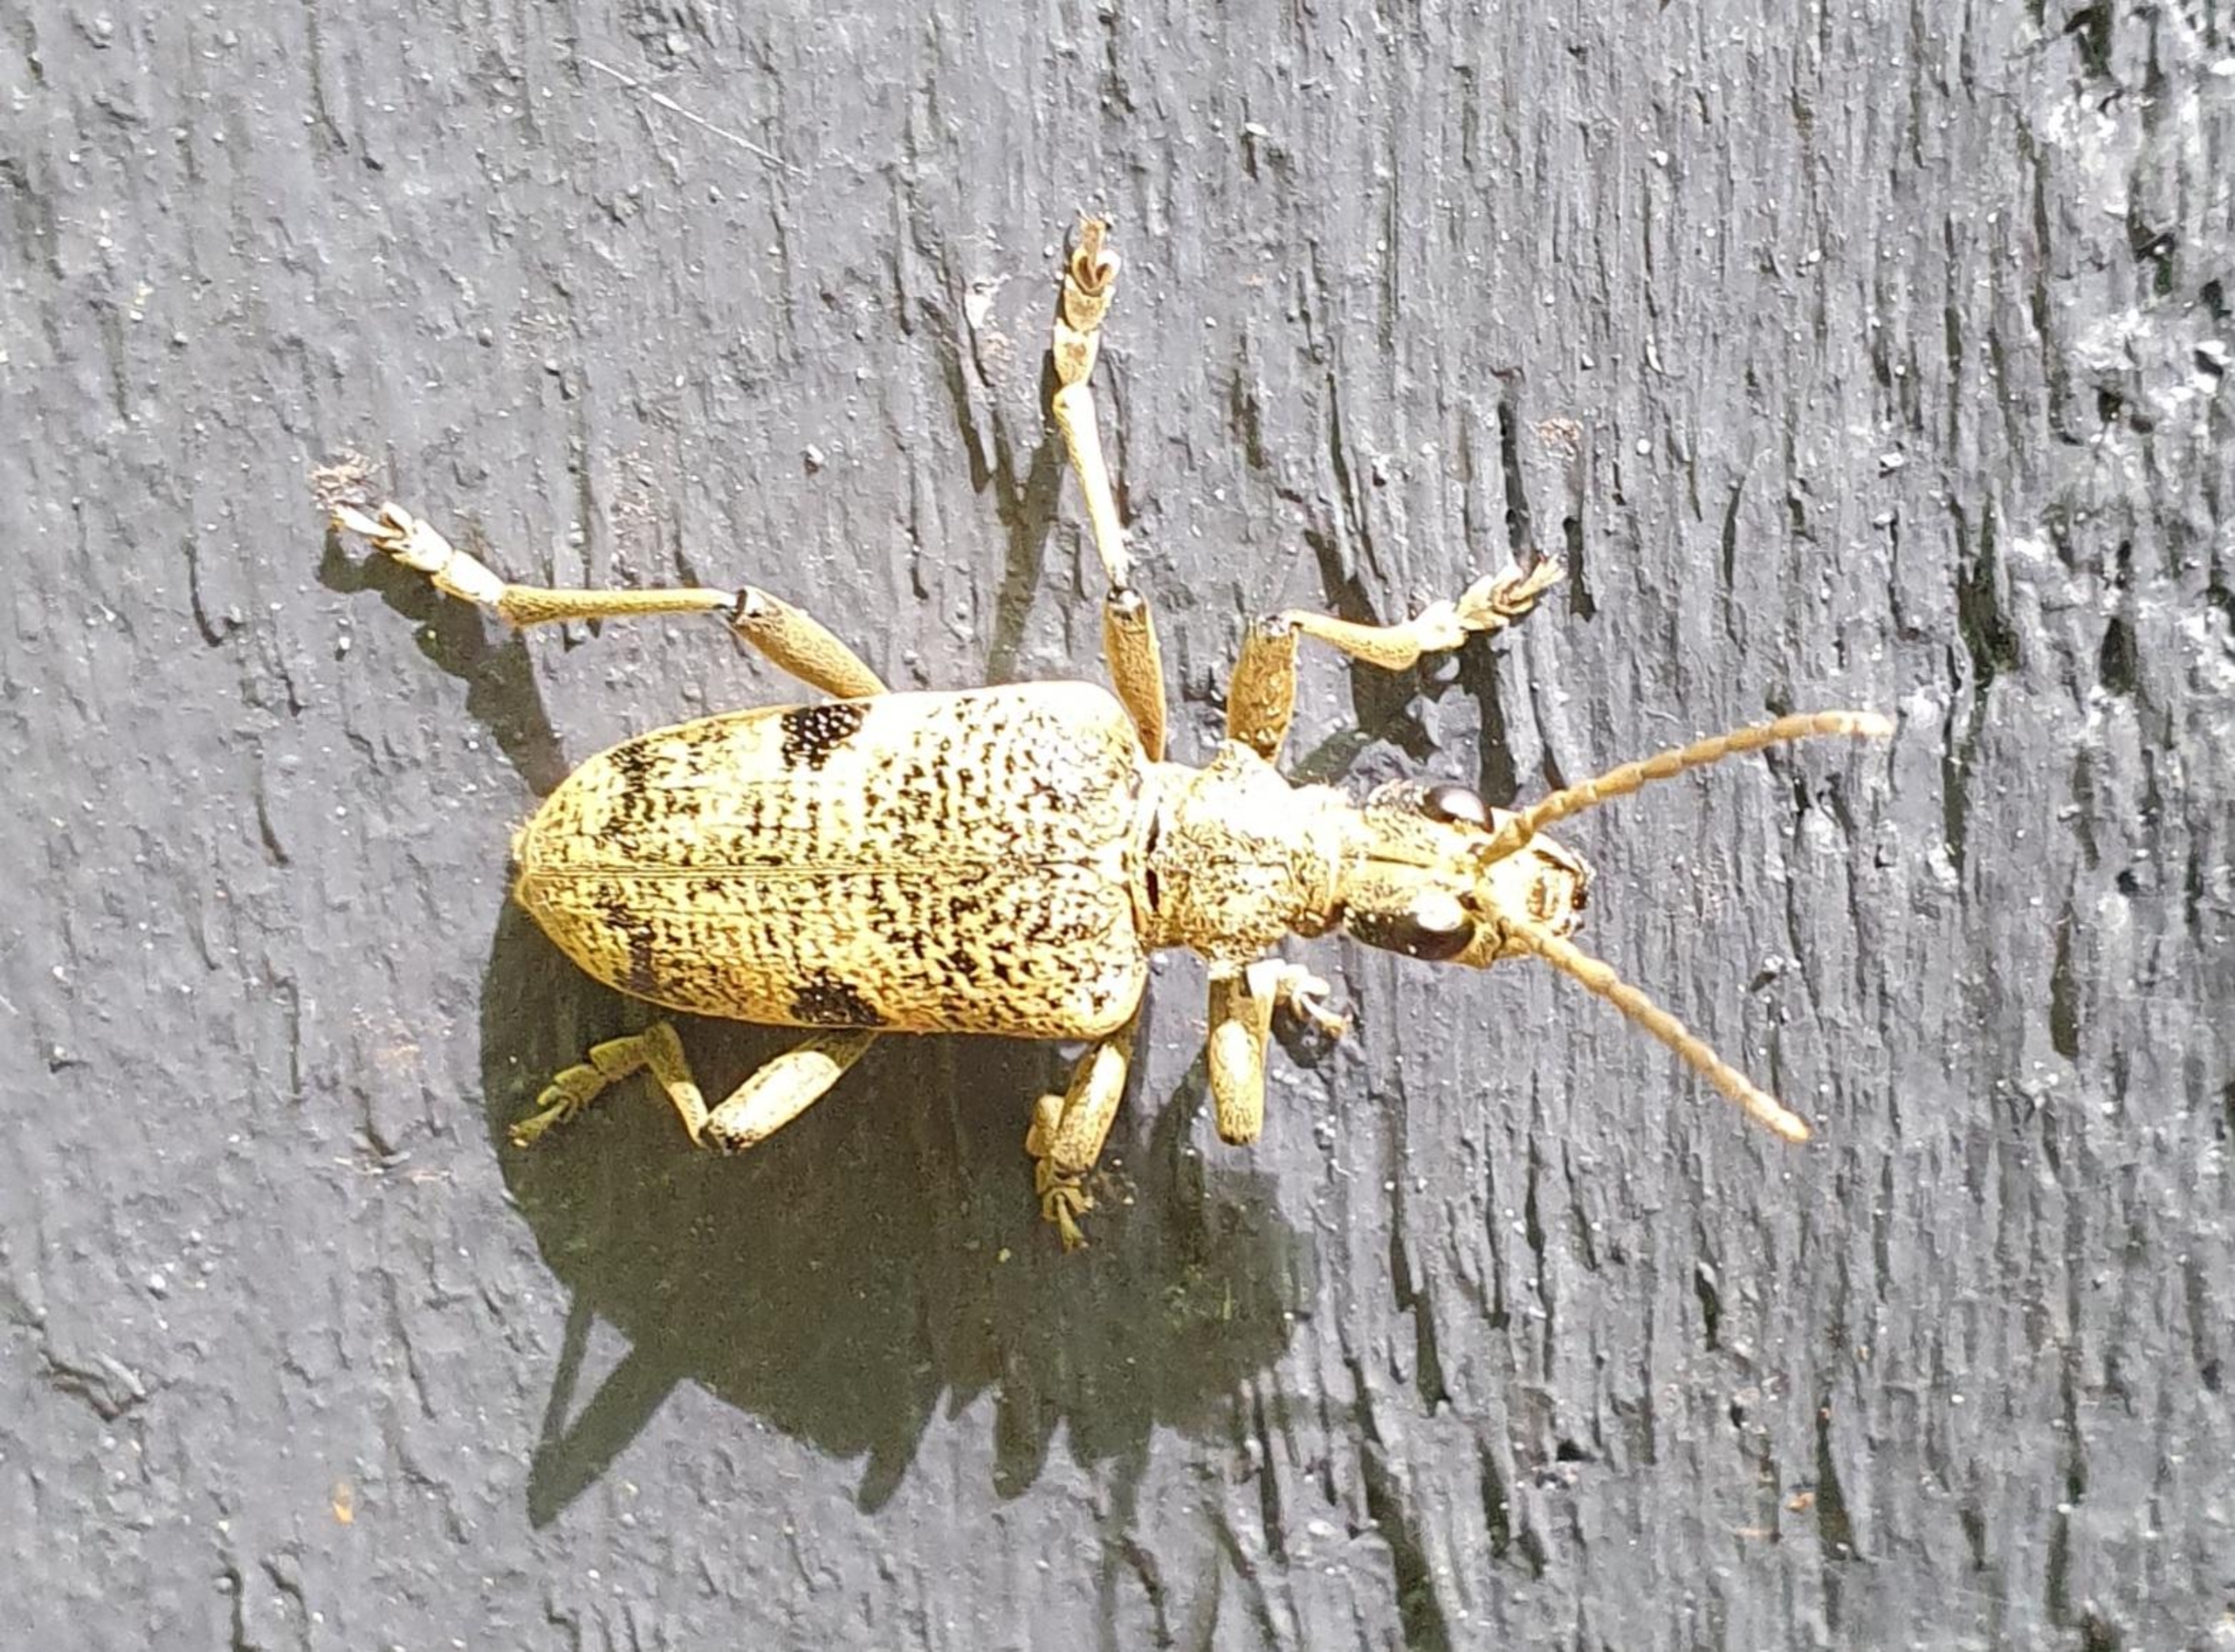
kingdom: Animalia
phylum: Arthropoda
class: Insecta
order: Coleoptera
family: Cerambycidae
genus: Rhagium
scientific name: Rhagium mordax
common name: Blankplettet tandbuk
